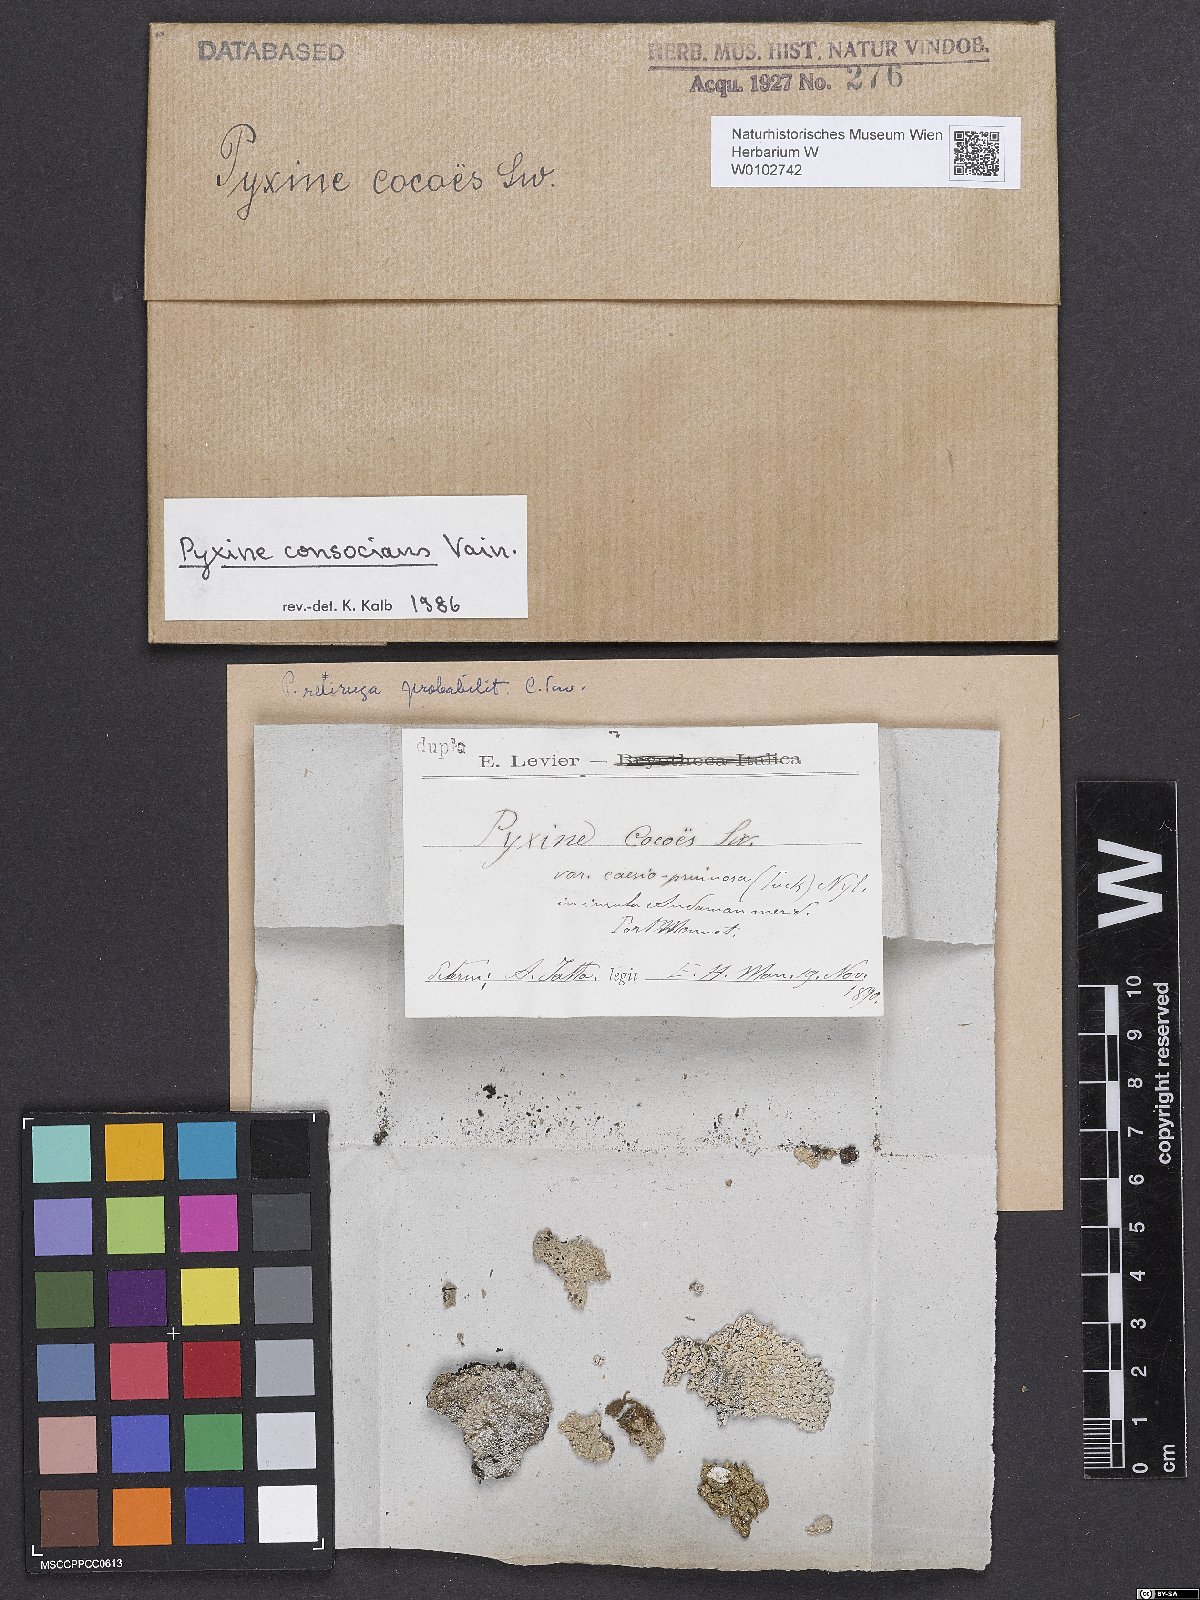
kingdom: Fungi
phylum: Ascomycota
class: Lecanoromycetes
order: Caliciales
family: Caliciaceae
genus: Pyxine
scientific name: Pyxine consocians
